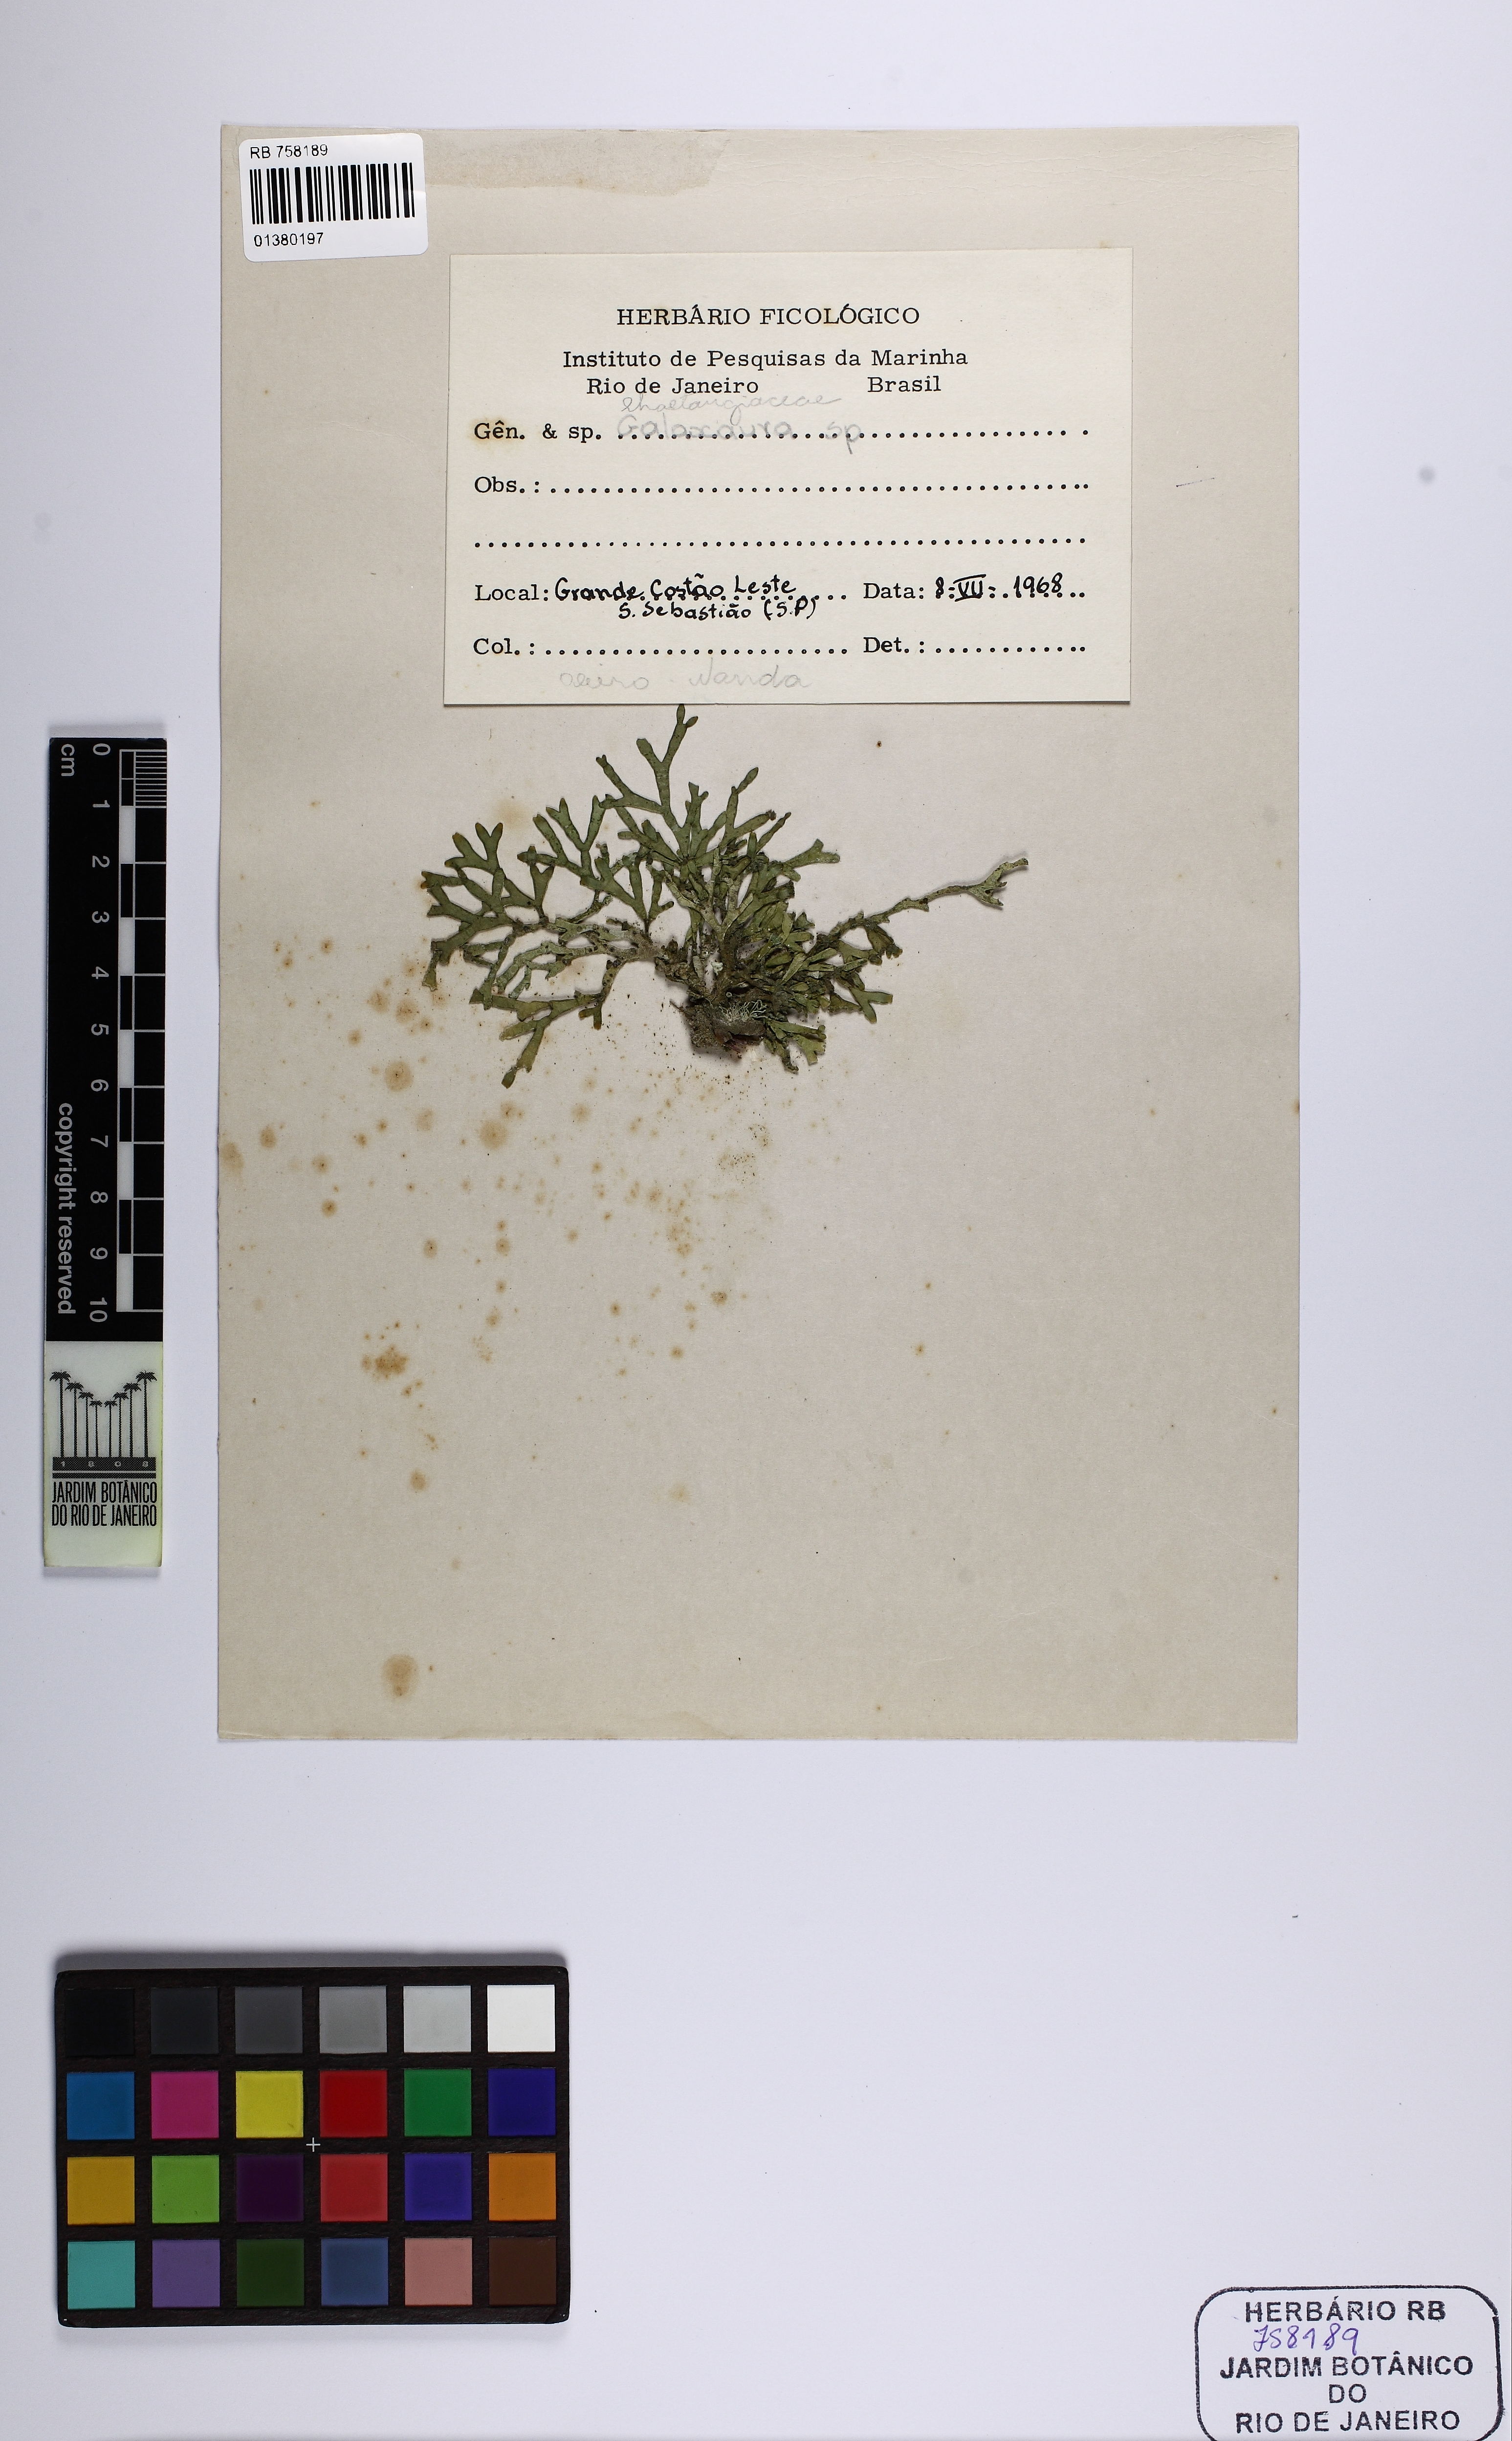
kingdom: Plantae
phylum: Rhodophyta
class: Florideophyceae
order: Nemaliales
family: Galaxauraceae
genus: Galaxaura
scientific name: Galaxaura
